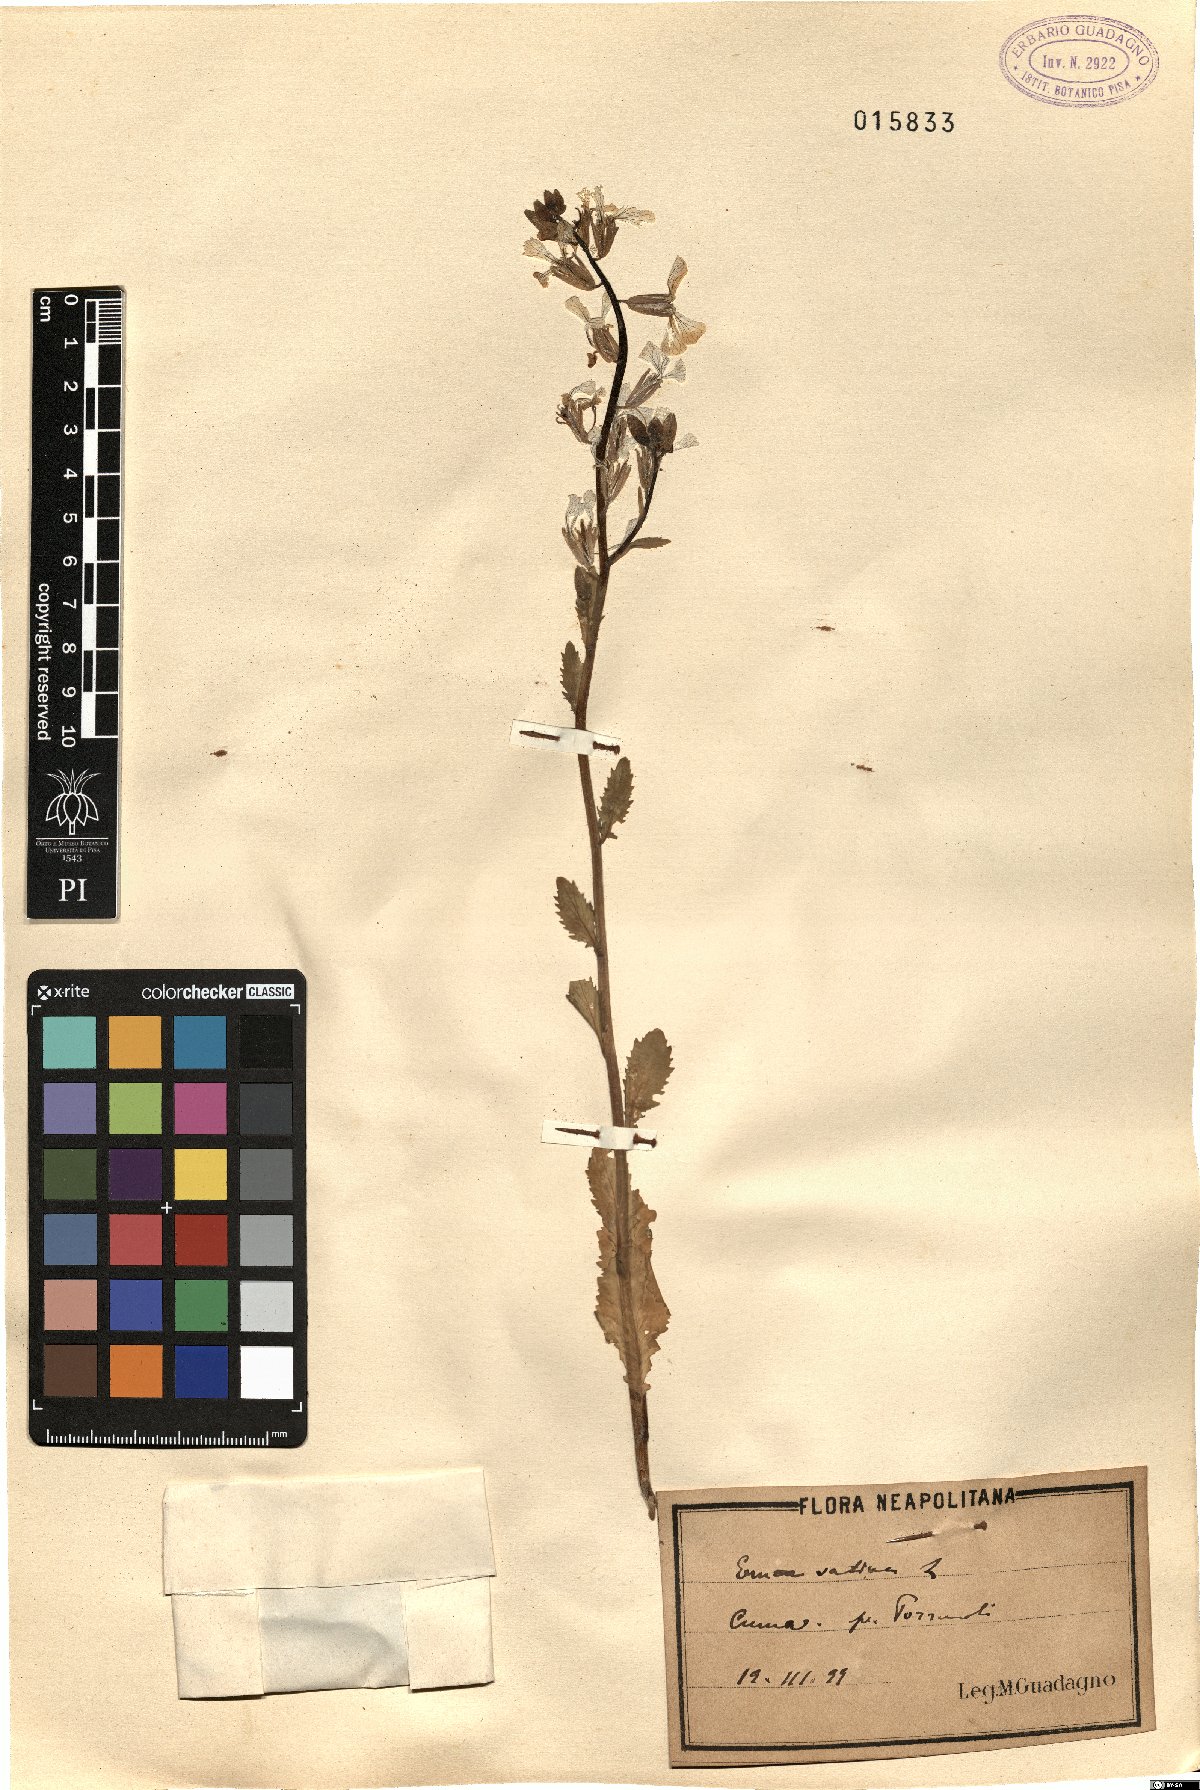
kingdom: Plantae
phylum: Tracheophyta
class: Magnoliopsida
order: Brassicales
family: Brassicaceae
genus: Eruca
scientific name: Eruca vesicaria
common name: Garden rocket
